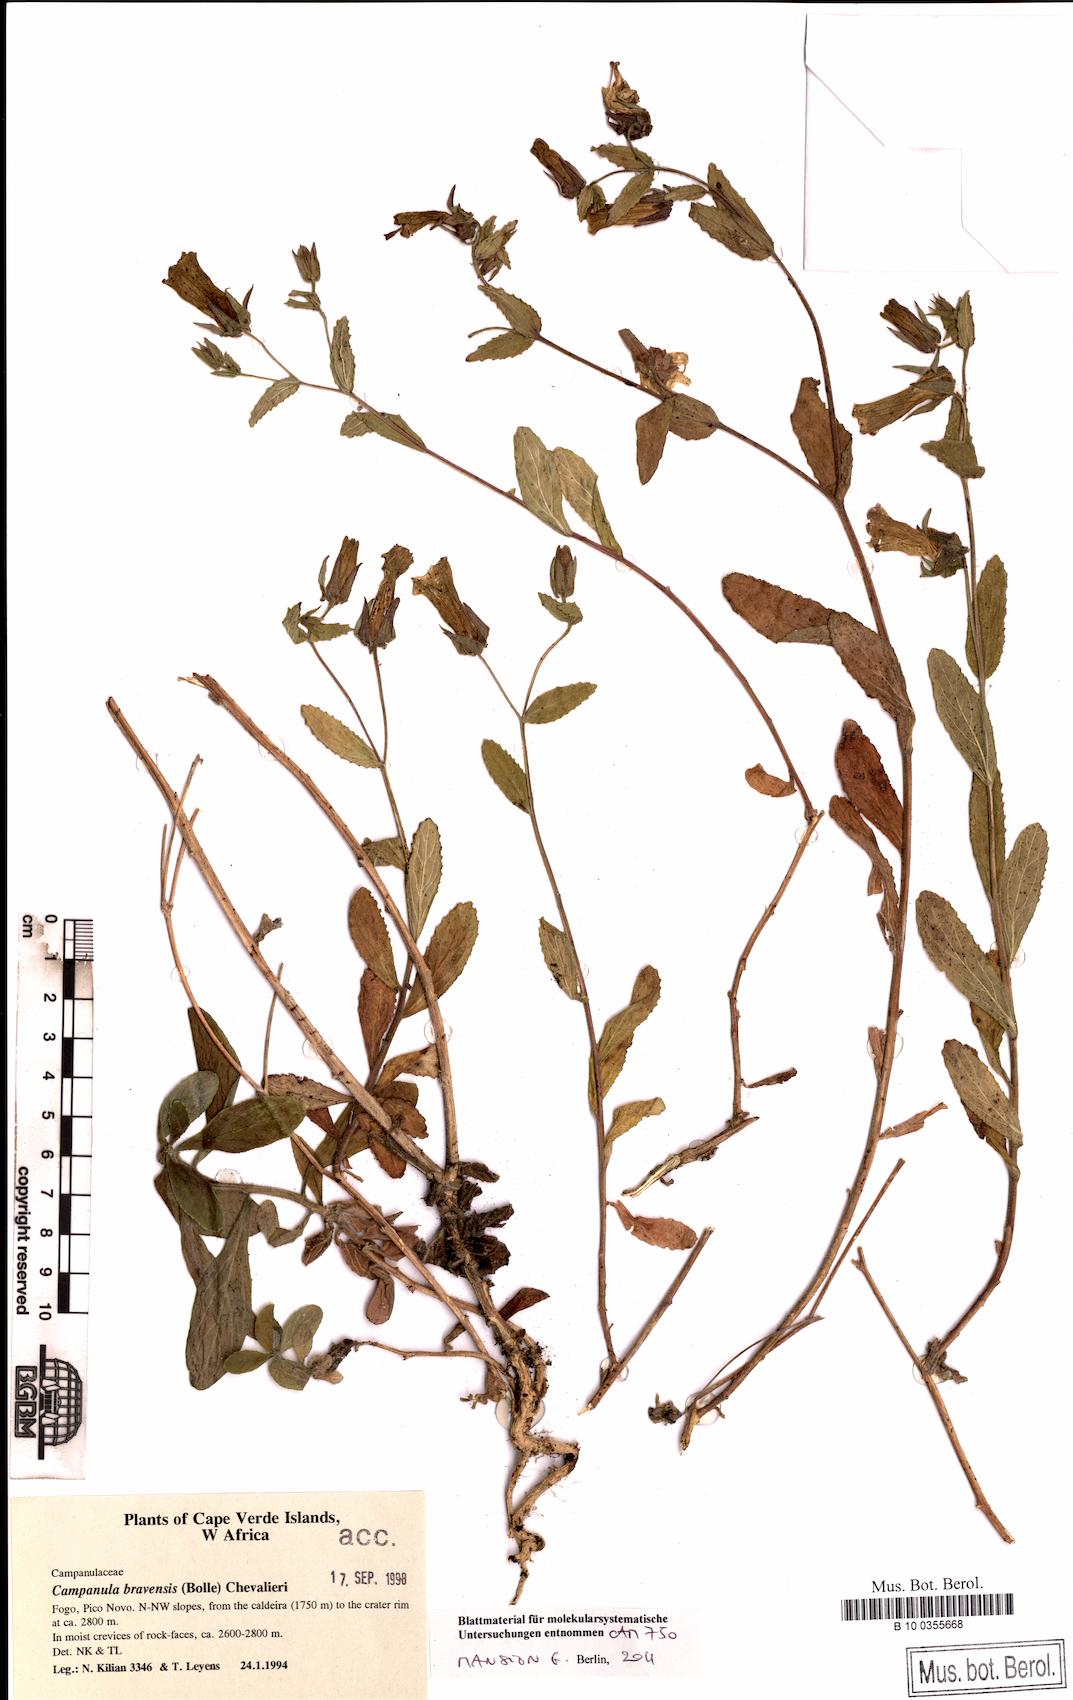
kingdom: Plantae
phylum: Tracheophyta
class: Magnoliopsida
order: Asterales
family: Campanulaceae
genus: Campanula
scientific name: Campanula bravensis
